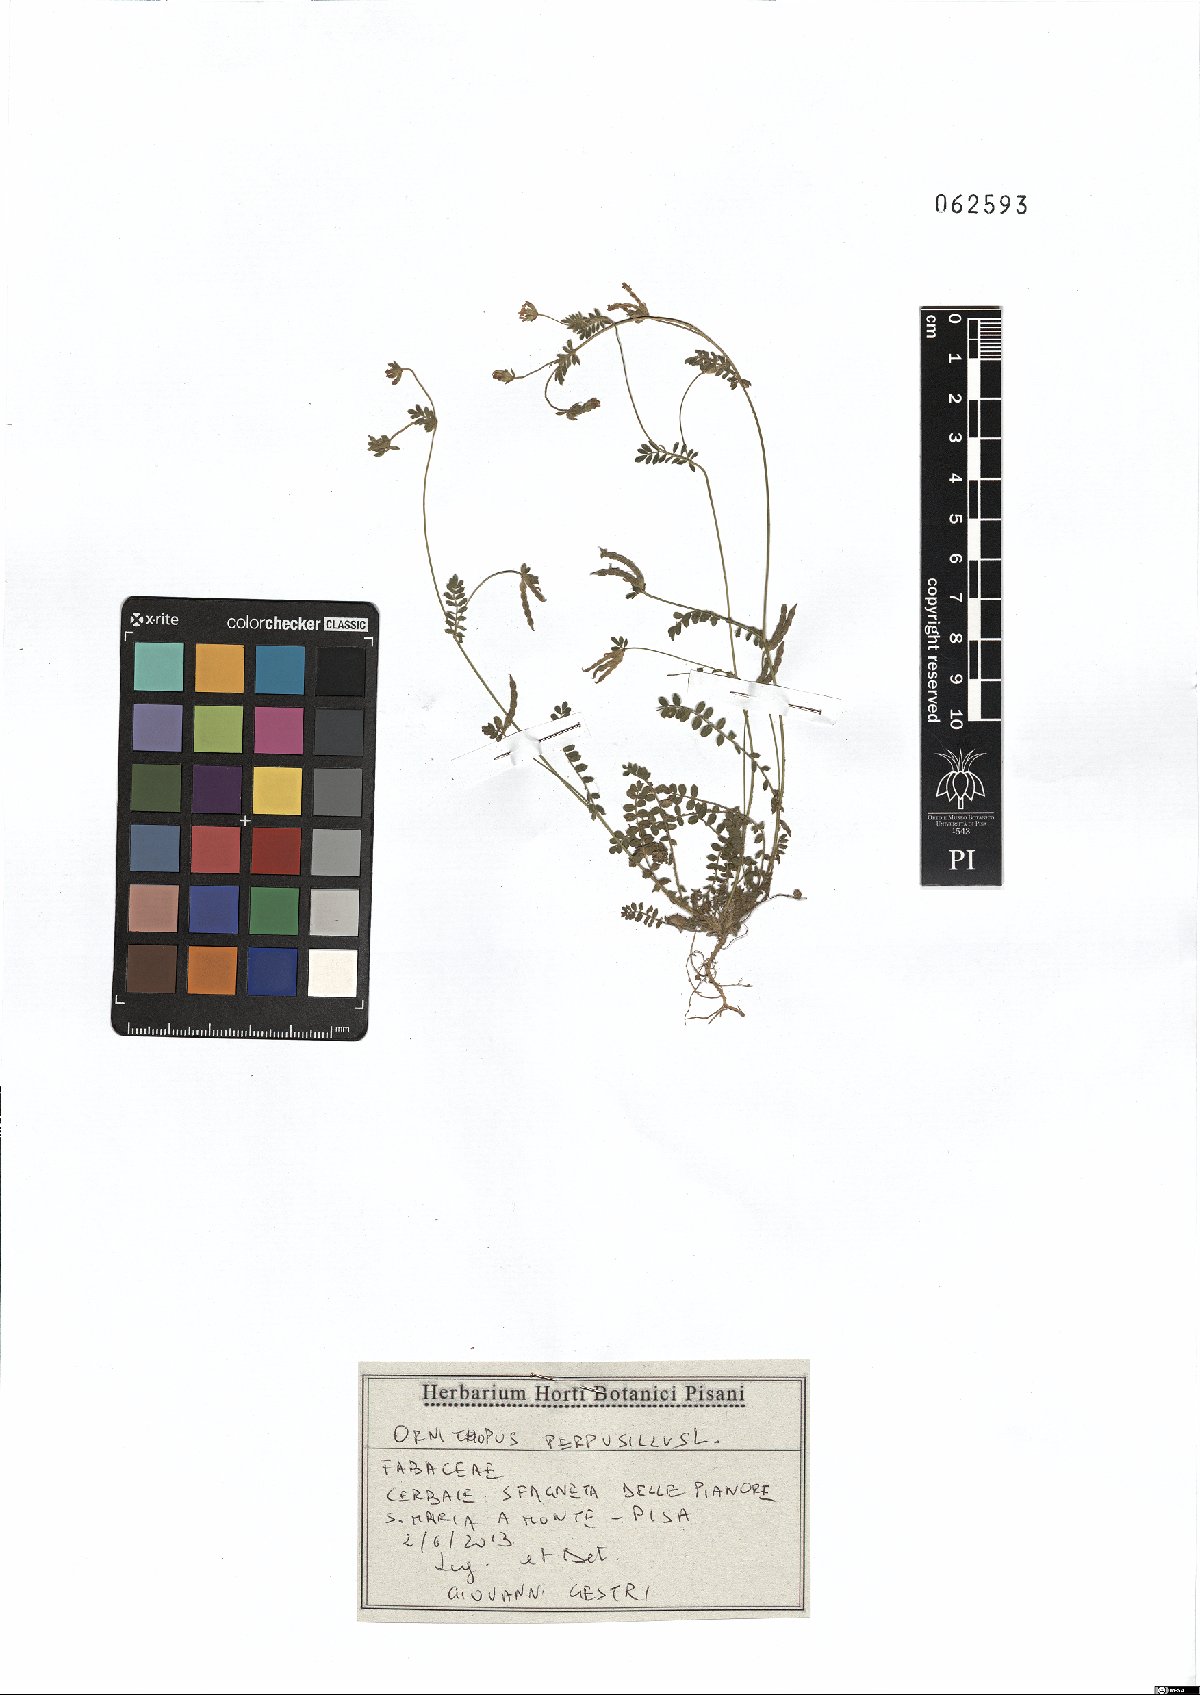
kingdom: Plantae
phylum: Tracheophyta
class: Magnoliopsida
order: Fabales
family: Fabaceae
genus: Ornithopus
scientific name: Ornithopus perpusillus
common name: Bird's-foot
